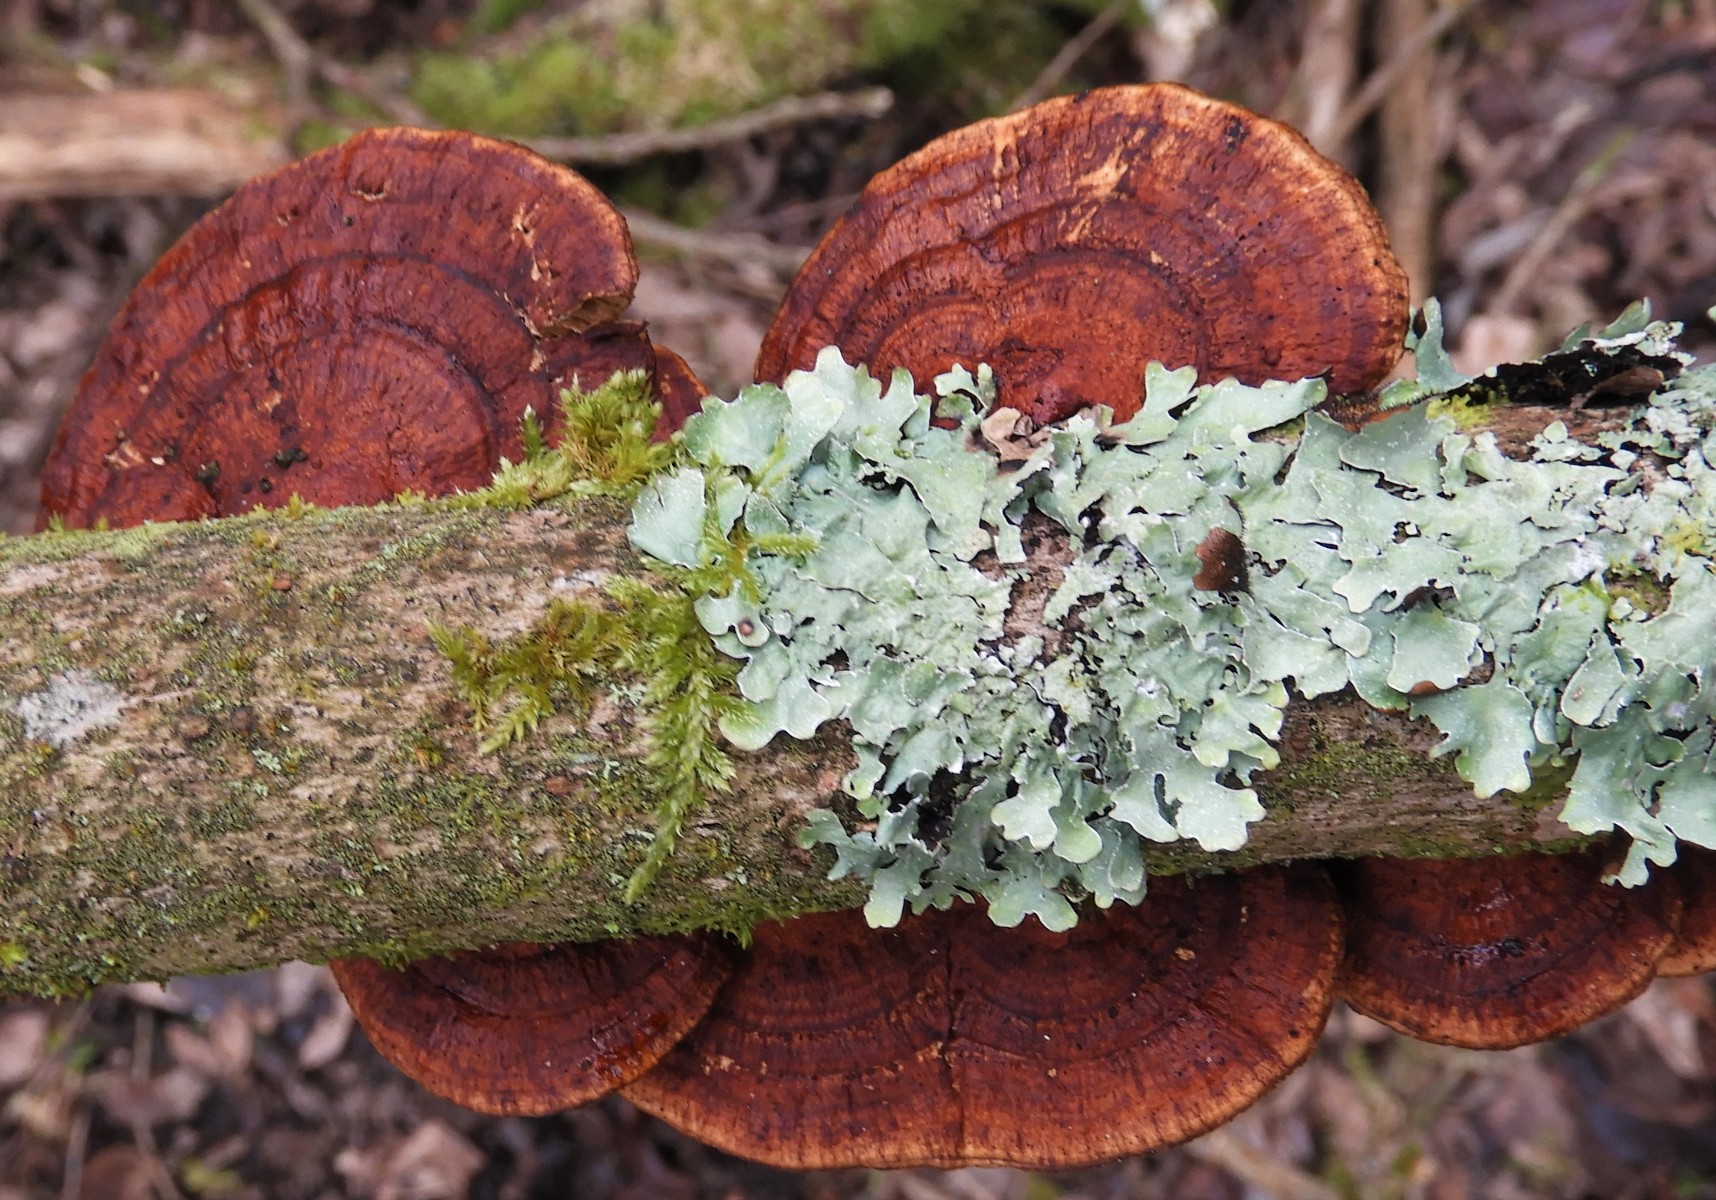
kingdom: Fungi
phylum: Basidiomycota
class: Agaricomycetes
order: Polyporales
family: Polyporaceae
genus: Daedaleopsis
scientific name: Daedaleopsis confragosa
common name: rødmende læderporesvamp
